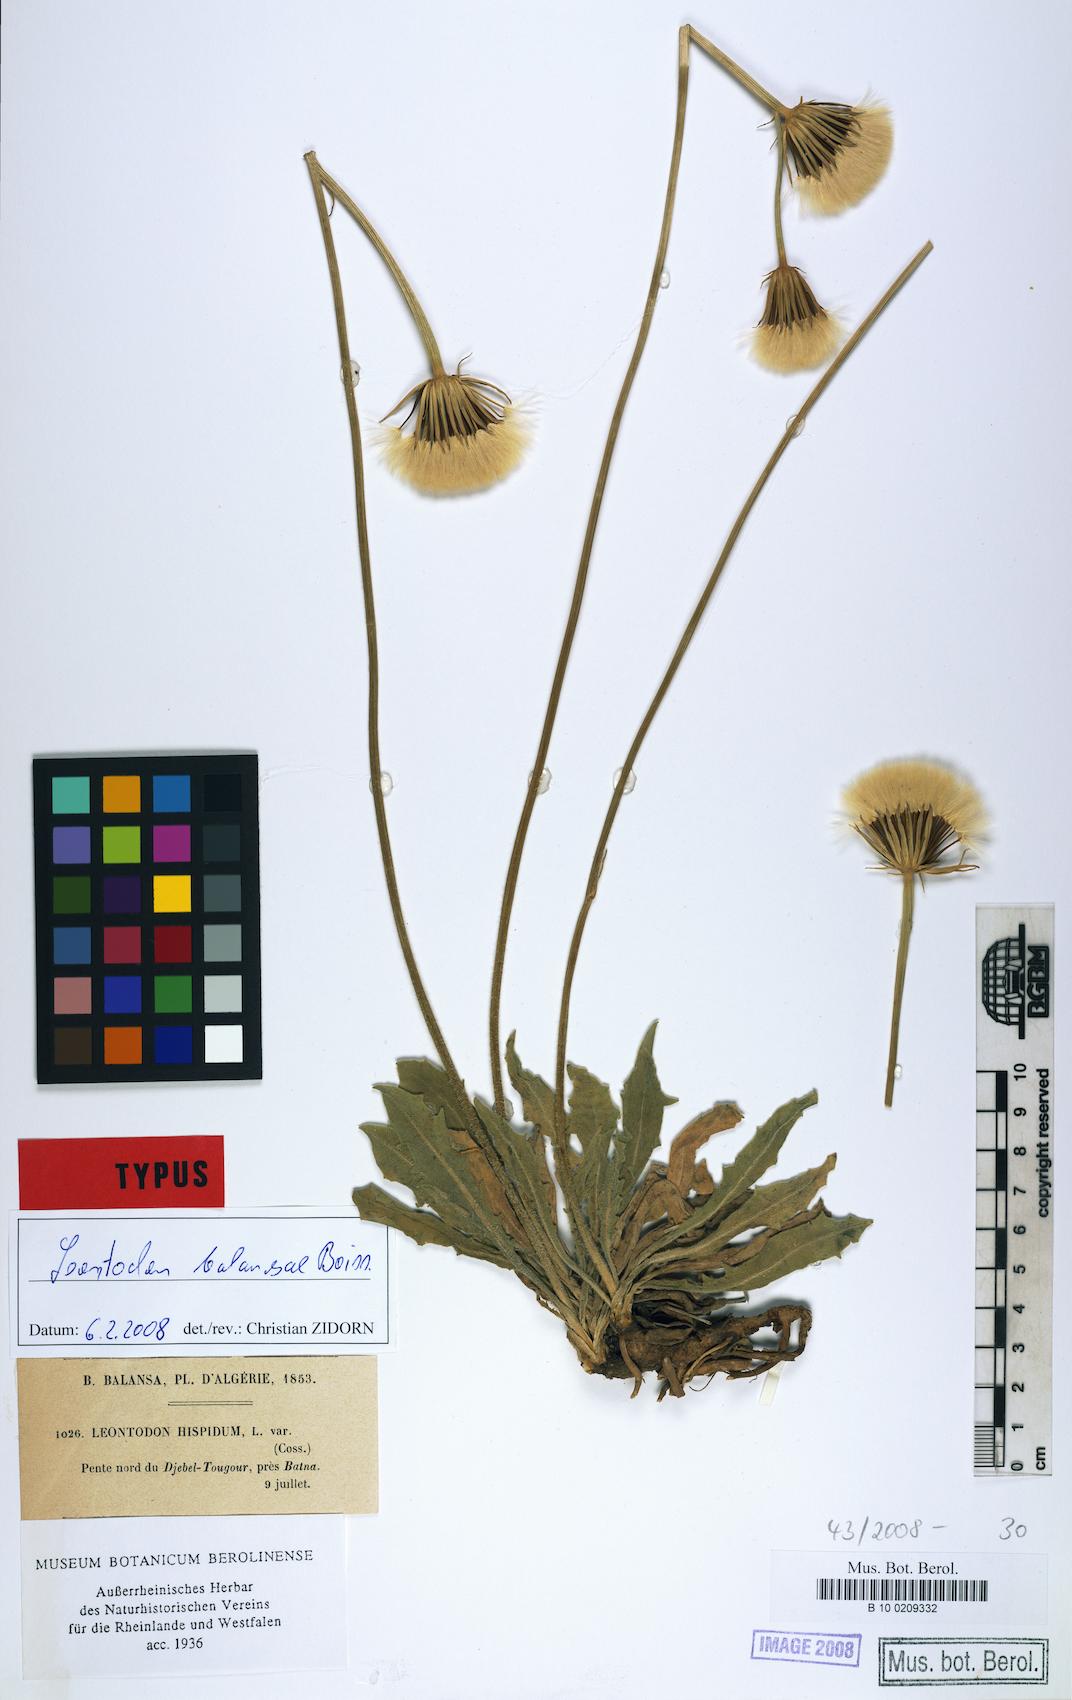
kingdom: Plantae
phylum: Tracheophyta
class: Magnoliopsida
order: Asterales
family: Asteraceae
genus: Leontodon
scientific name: Leontodon balansae
